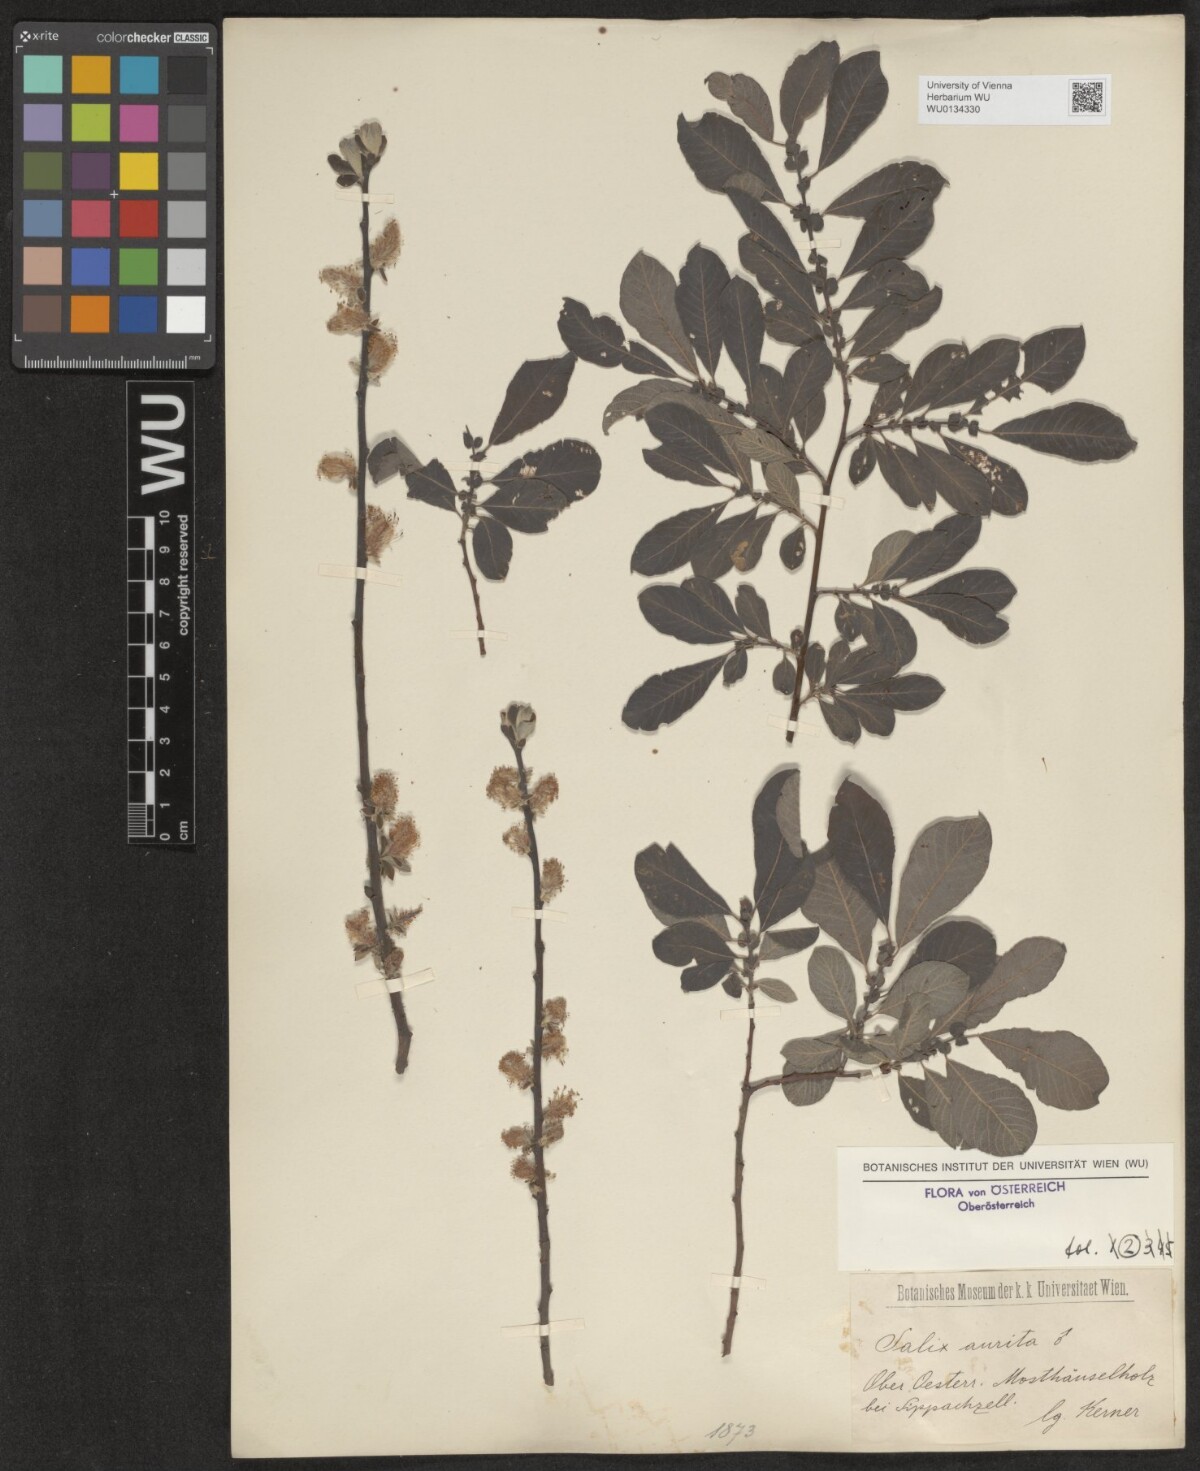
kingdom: Plantae
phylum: Tracheophyta
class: Magnoliopsida
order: Malpighiales
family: Salicaceae
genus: Salix
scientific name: Salix aurita
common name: Eared willow
